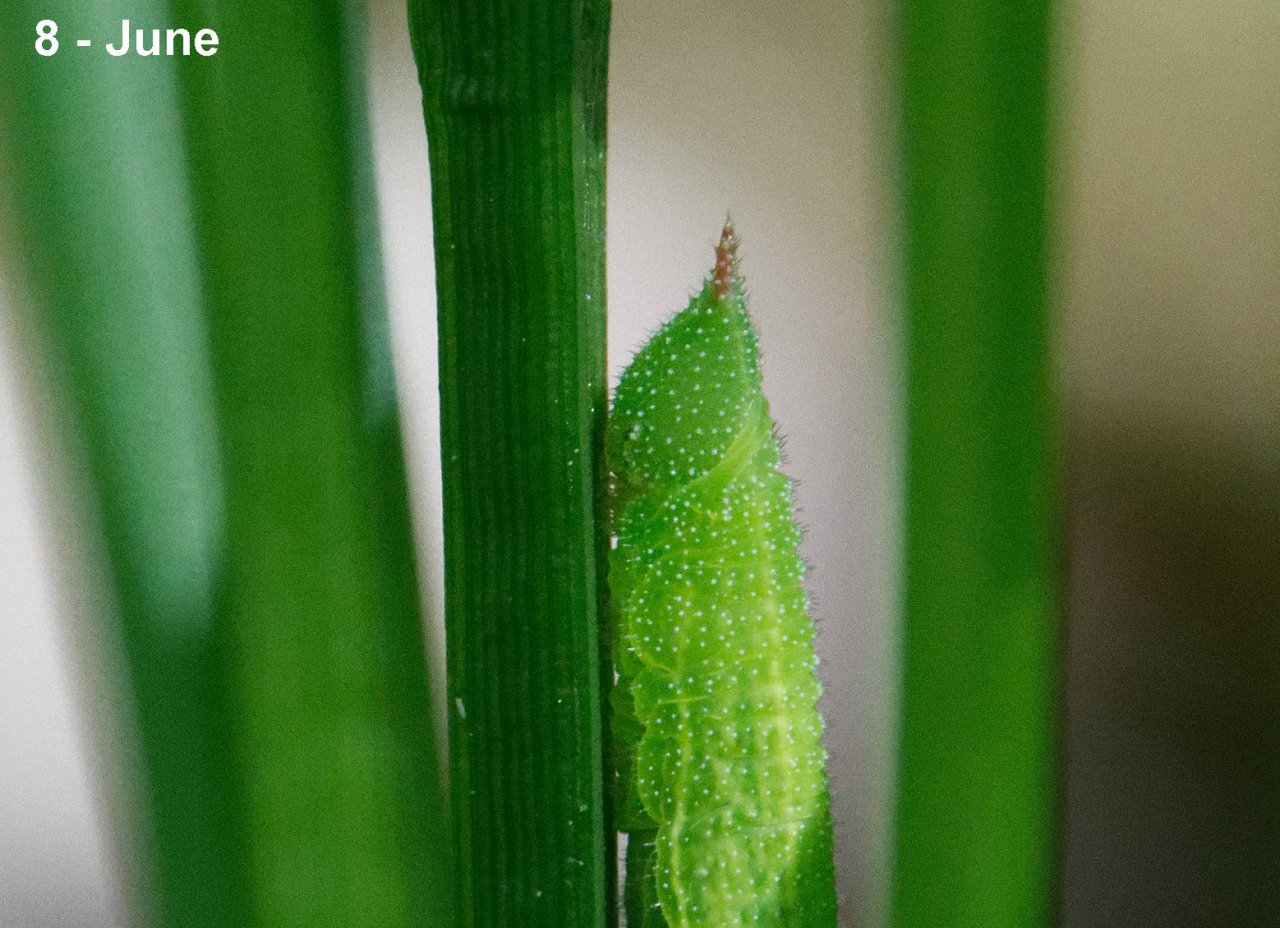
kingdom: Animalia
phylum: Arthropoda
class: Insecta
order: Lepidoptera
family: Nymphalidae
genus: Lethe
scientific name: Lethe anthedon
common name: Northern Pearly-Eye
